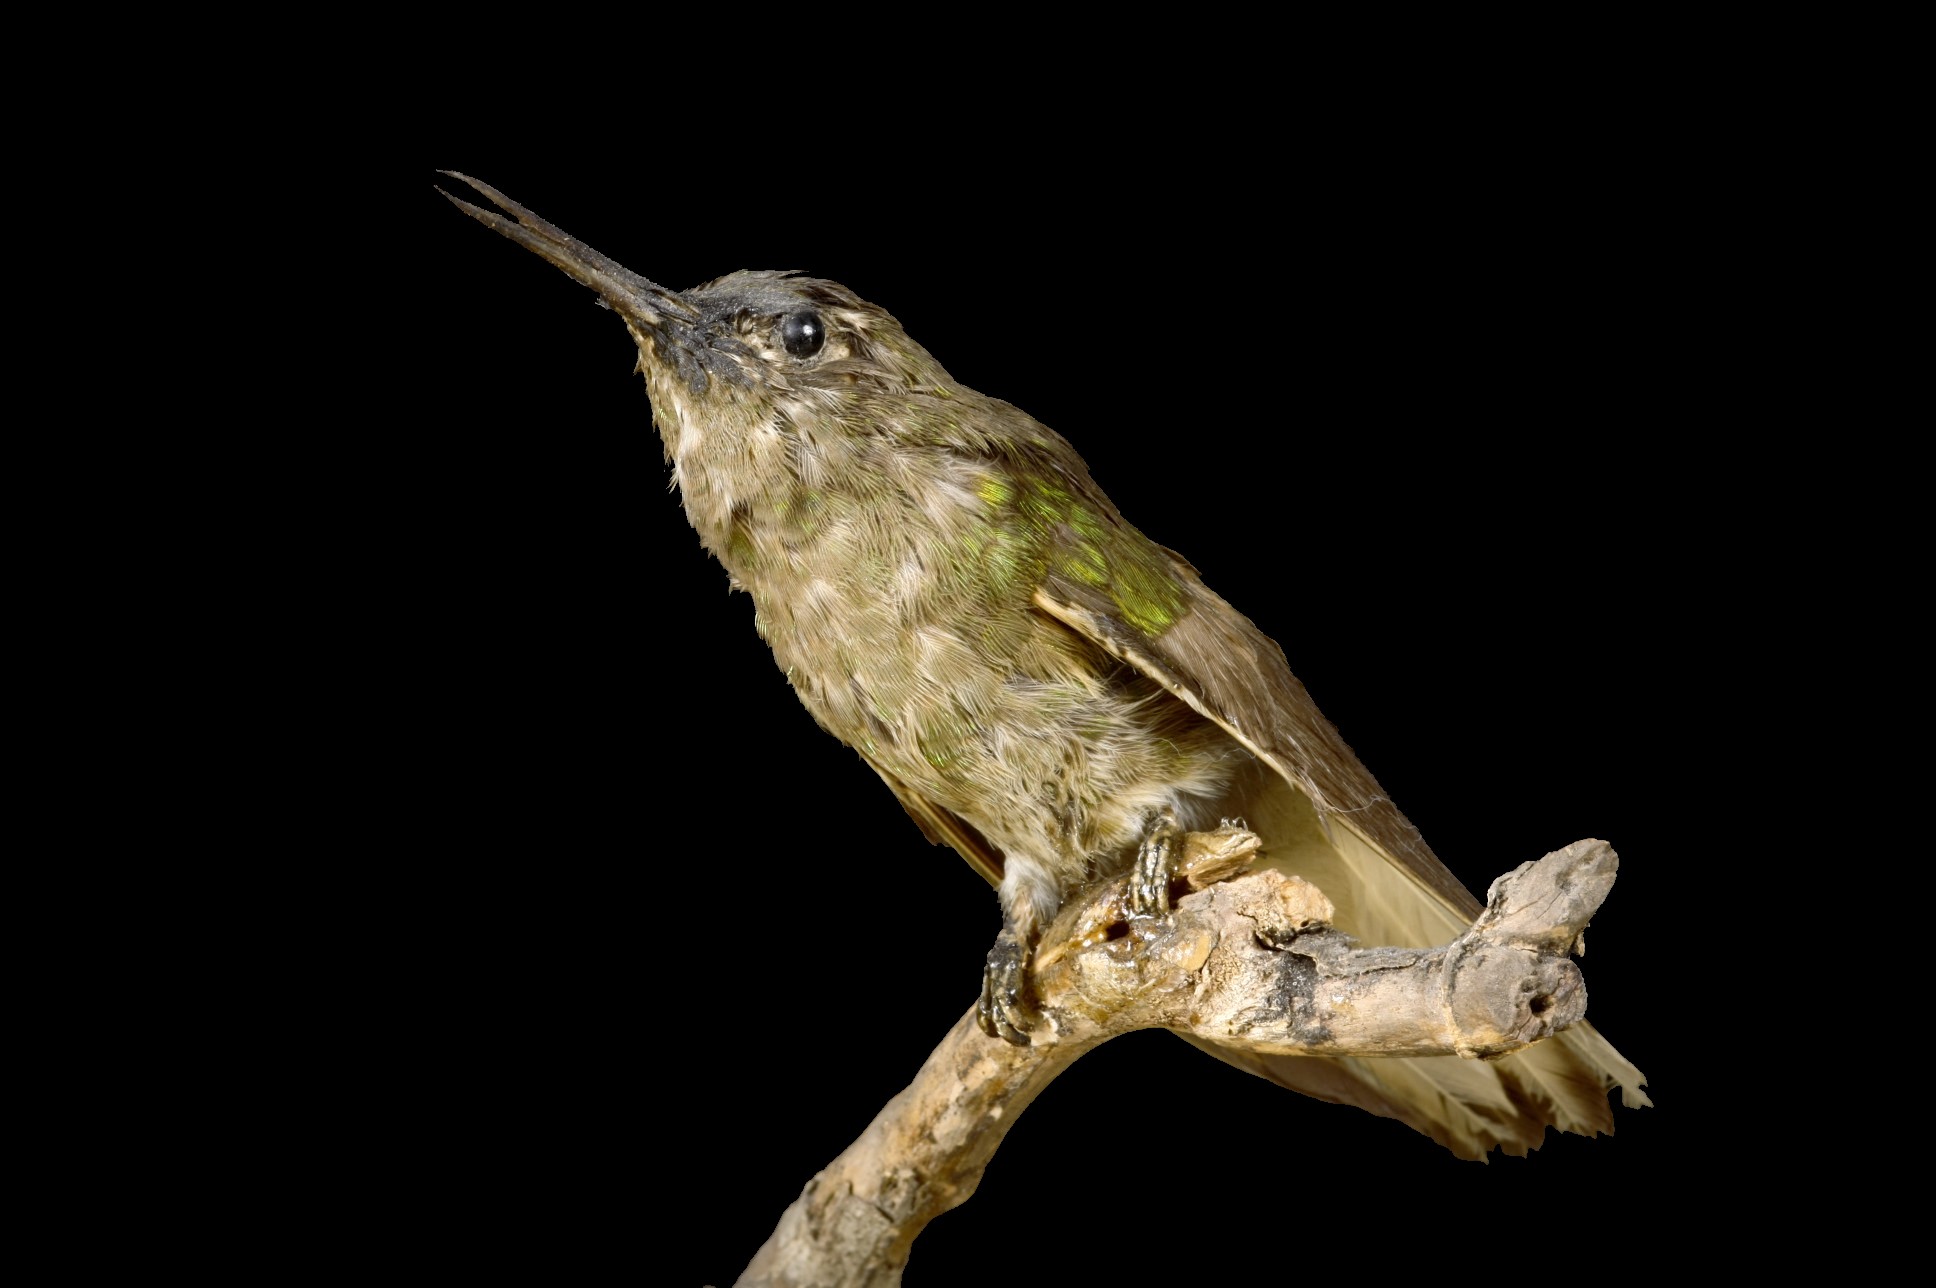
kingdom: Animalia
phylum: Chordata
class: Aves
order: Apodiformes
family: Trochilidae
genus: Boissonneaua
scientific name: Boissonneaua flavescens
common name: Buff-tailed coronet
